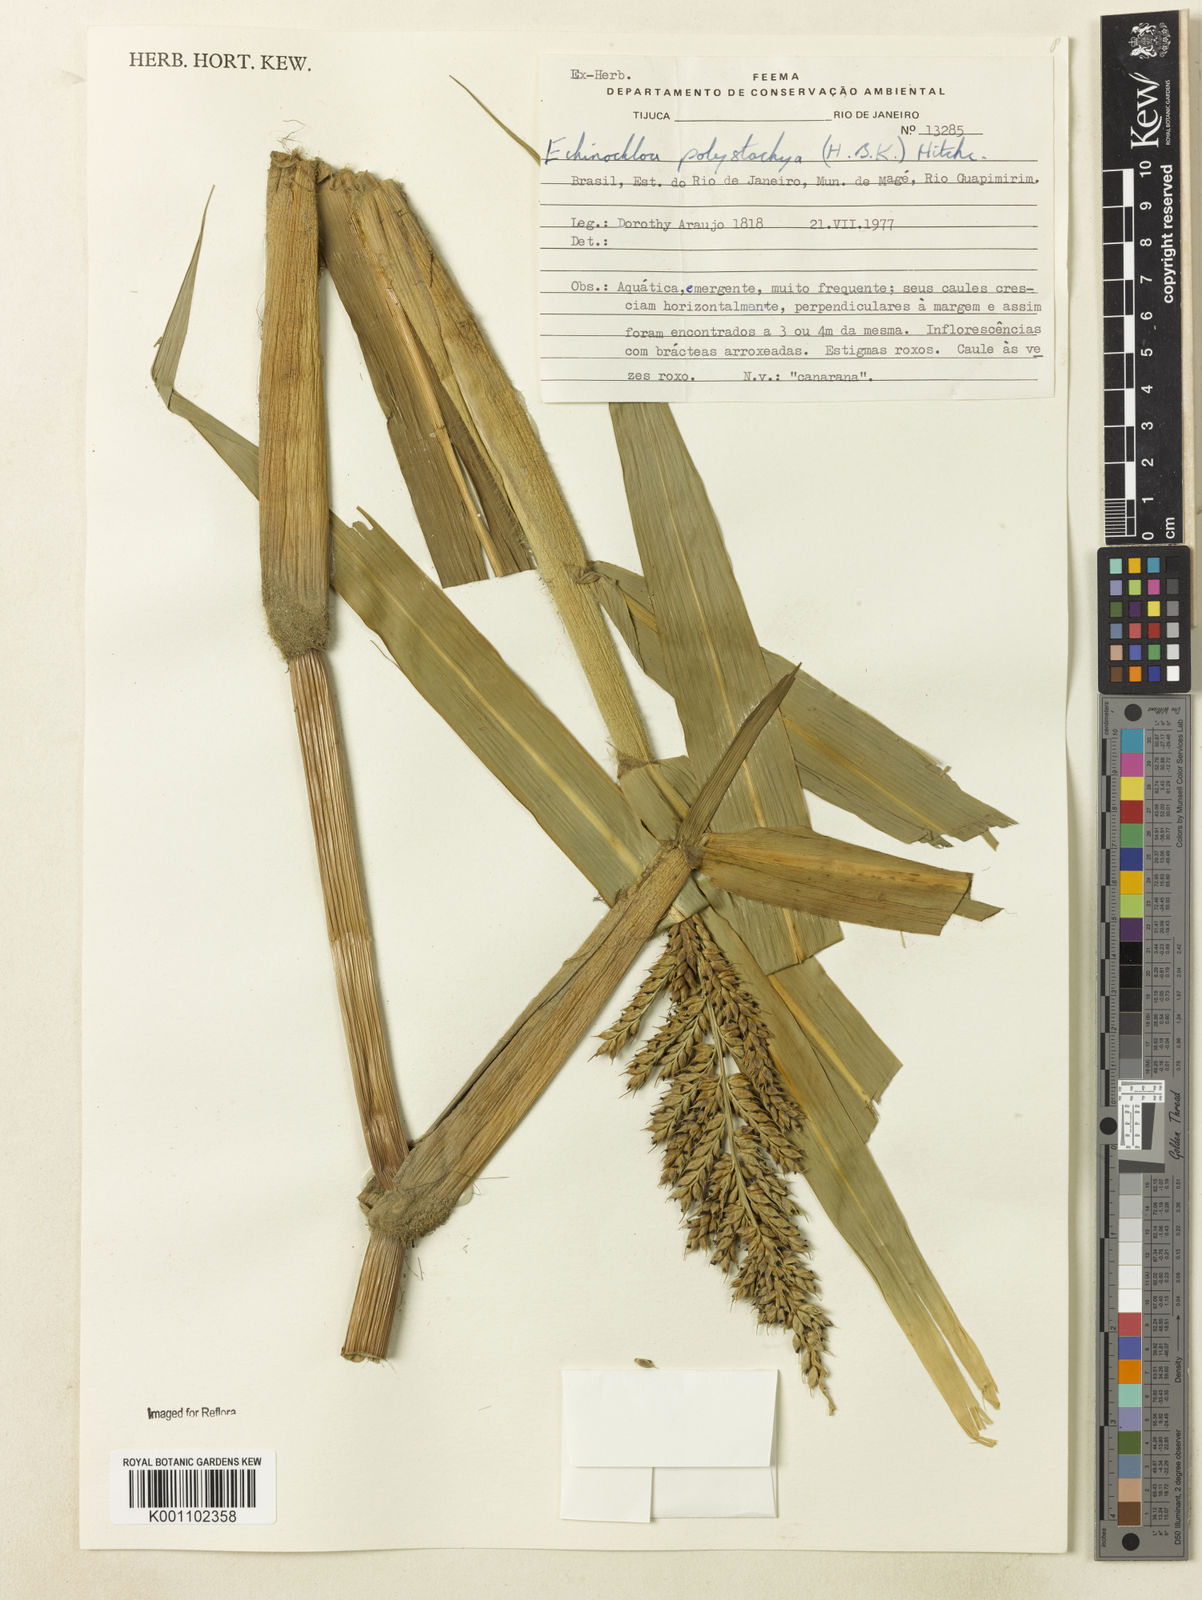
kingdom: Plantae
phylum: Tracheophyta
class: Liliopsida
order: Poales
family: Poaceae
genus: Echinochloa
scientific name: Echinochloa polystachya
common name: Creeping river grass
